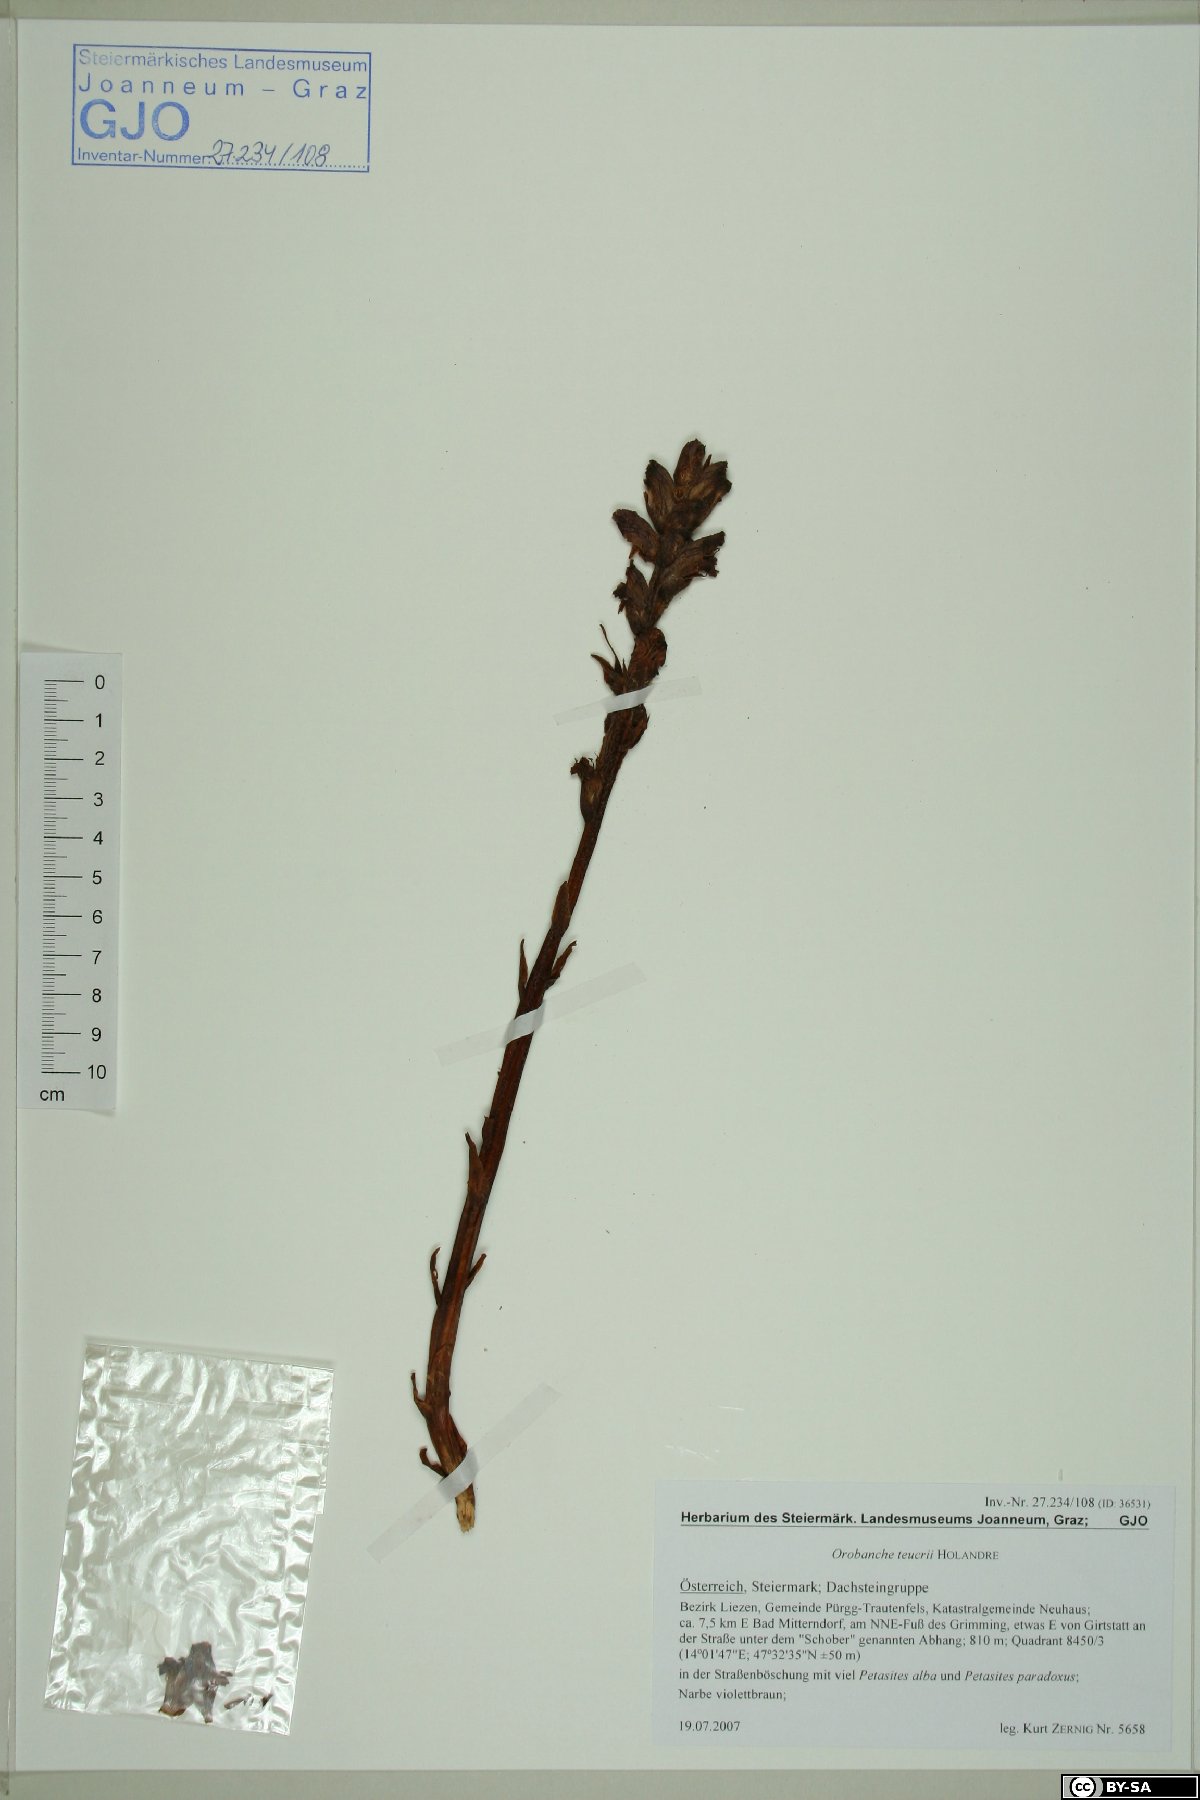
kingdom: Plantae
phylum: Tracheophyta
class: Magnoliopsida
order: Lamiales
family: Orobanchaceae
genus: Orobanche
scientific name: Orobanche teucrii
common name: Germander broomrape
